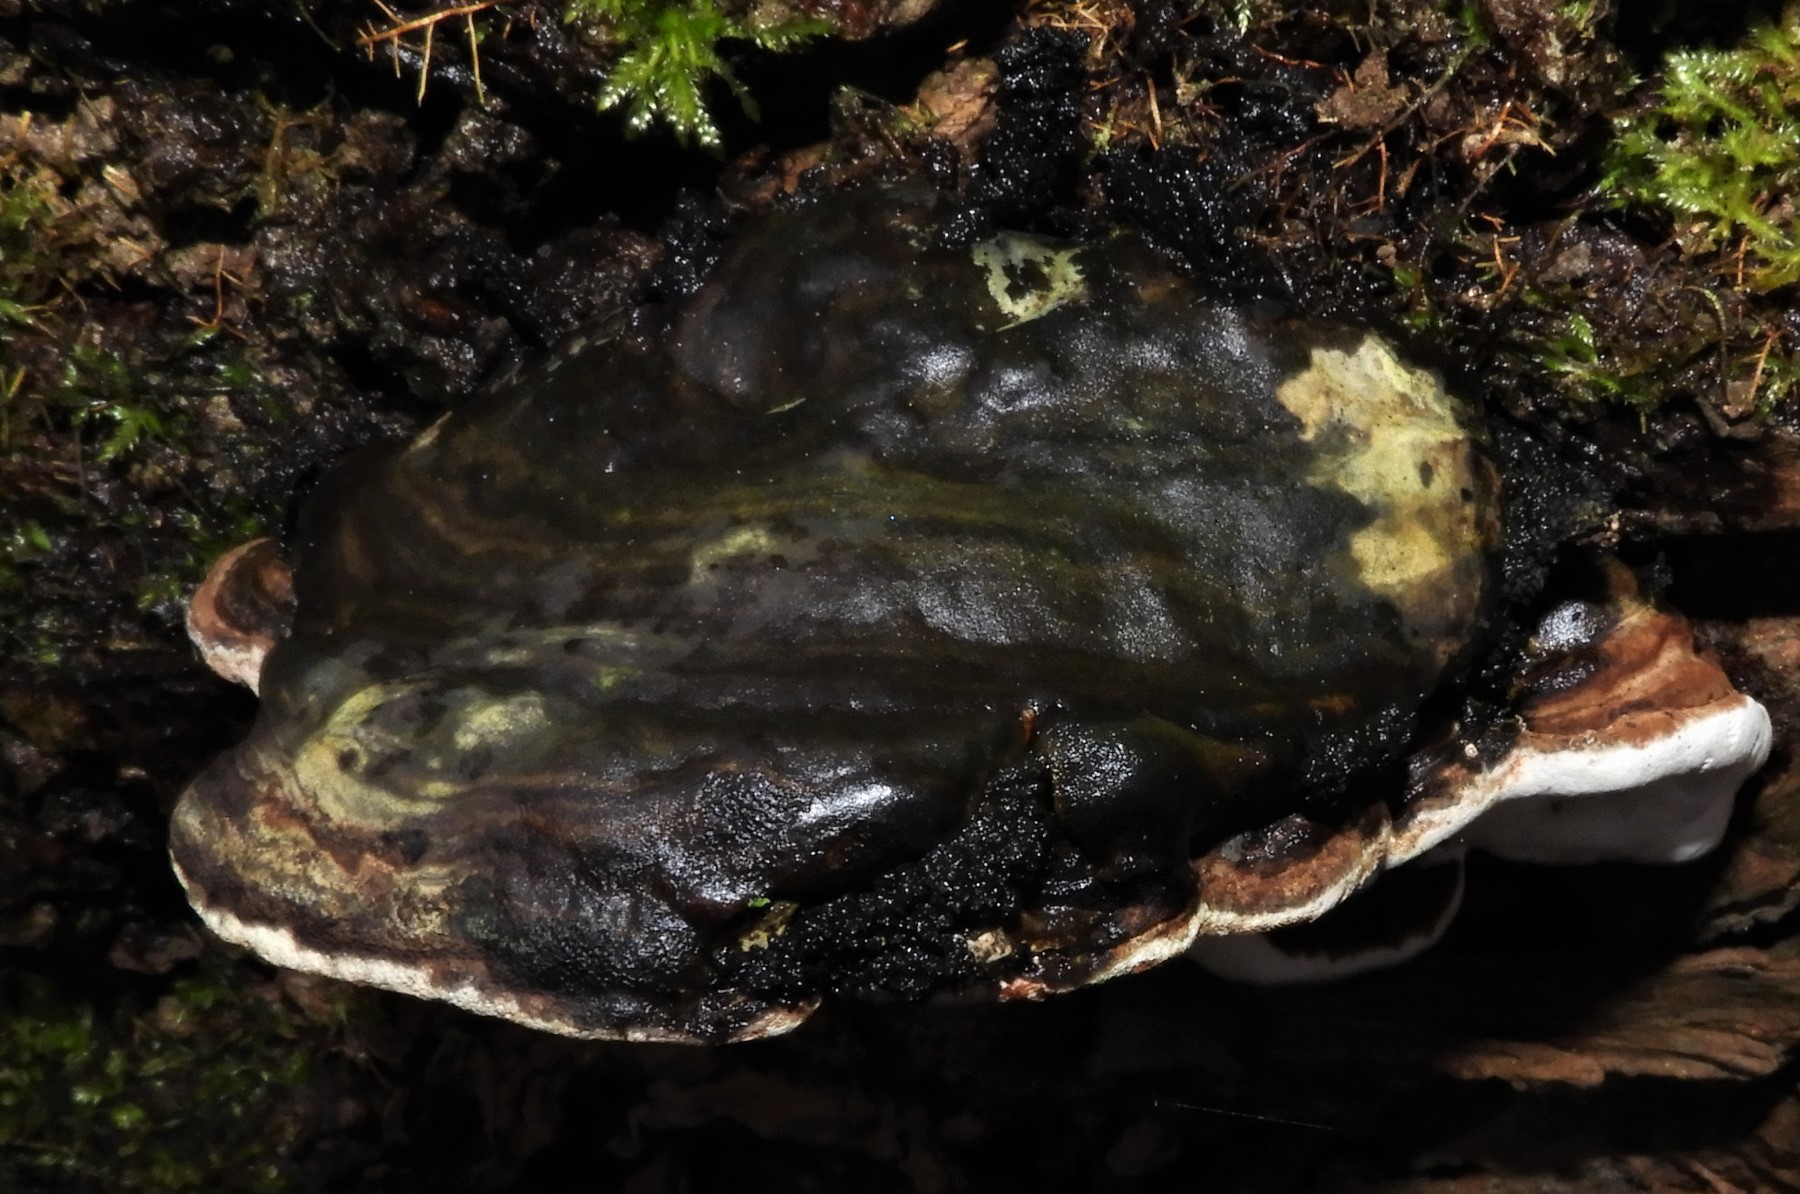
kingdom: Fungi
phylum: Basidiomycota
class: Agaricomycetes
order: Polyporales
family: Polyporaceae
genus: Ganoderma
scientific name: Ganoderma applanatum
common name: flad lakporesvamp
